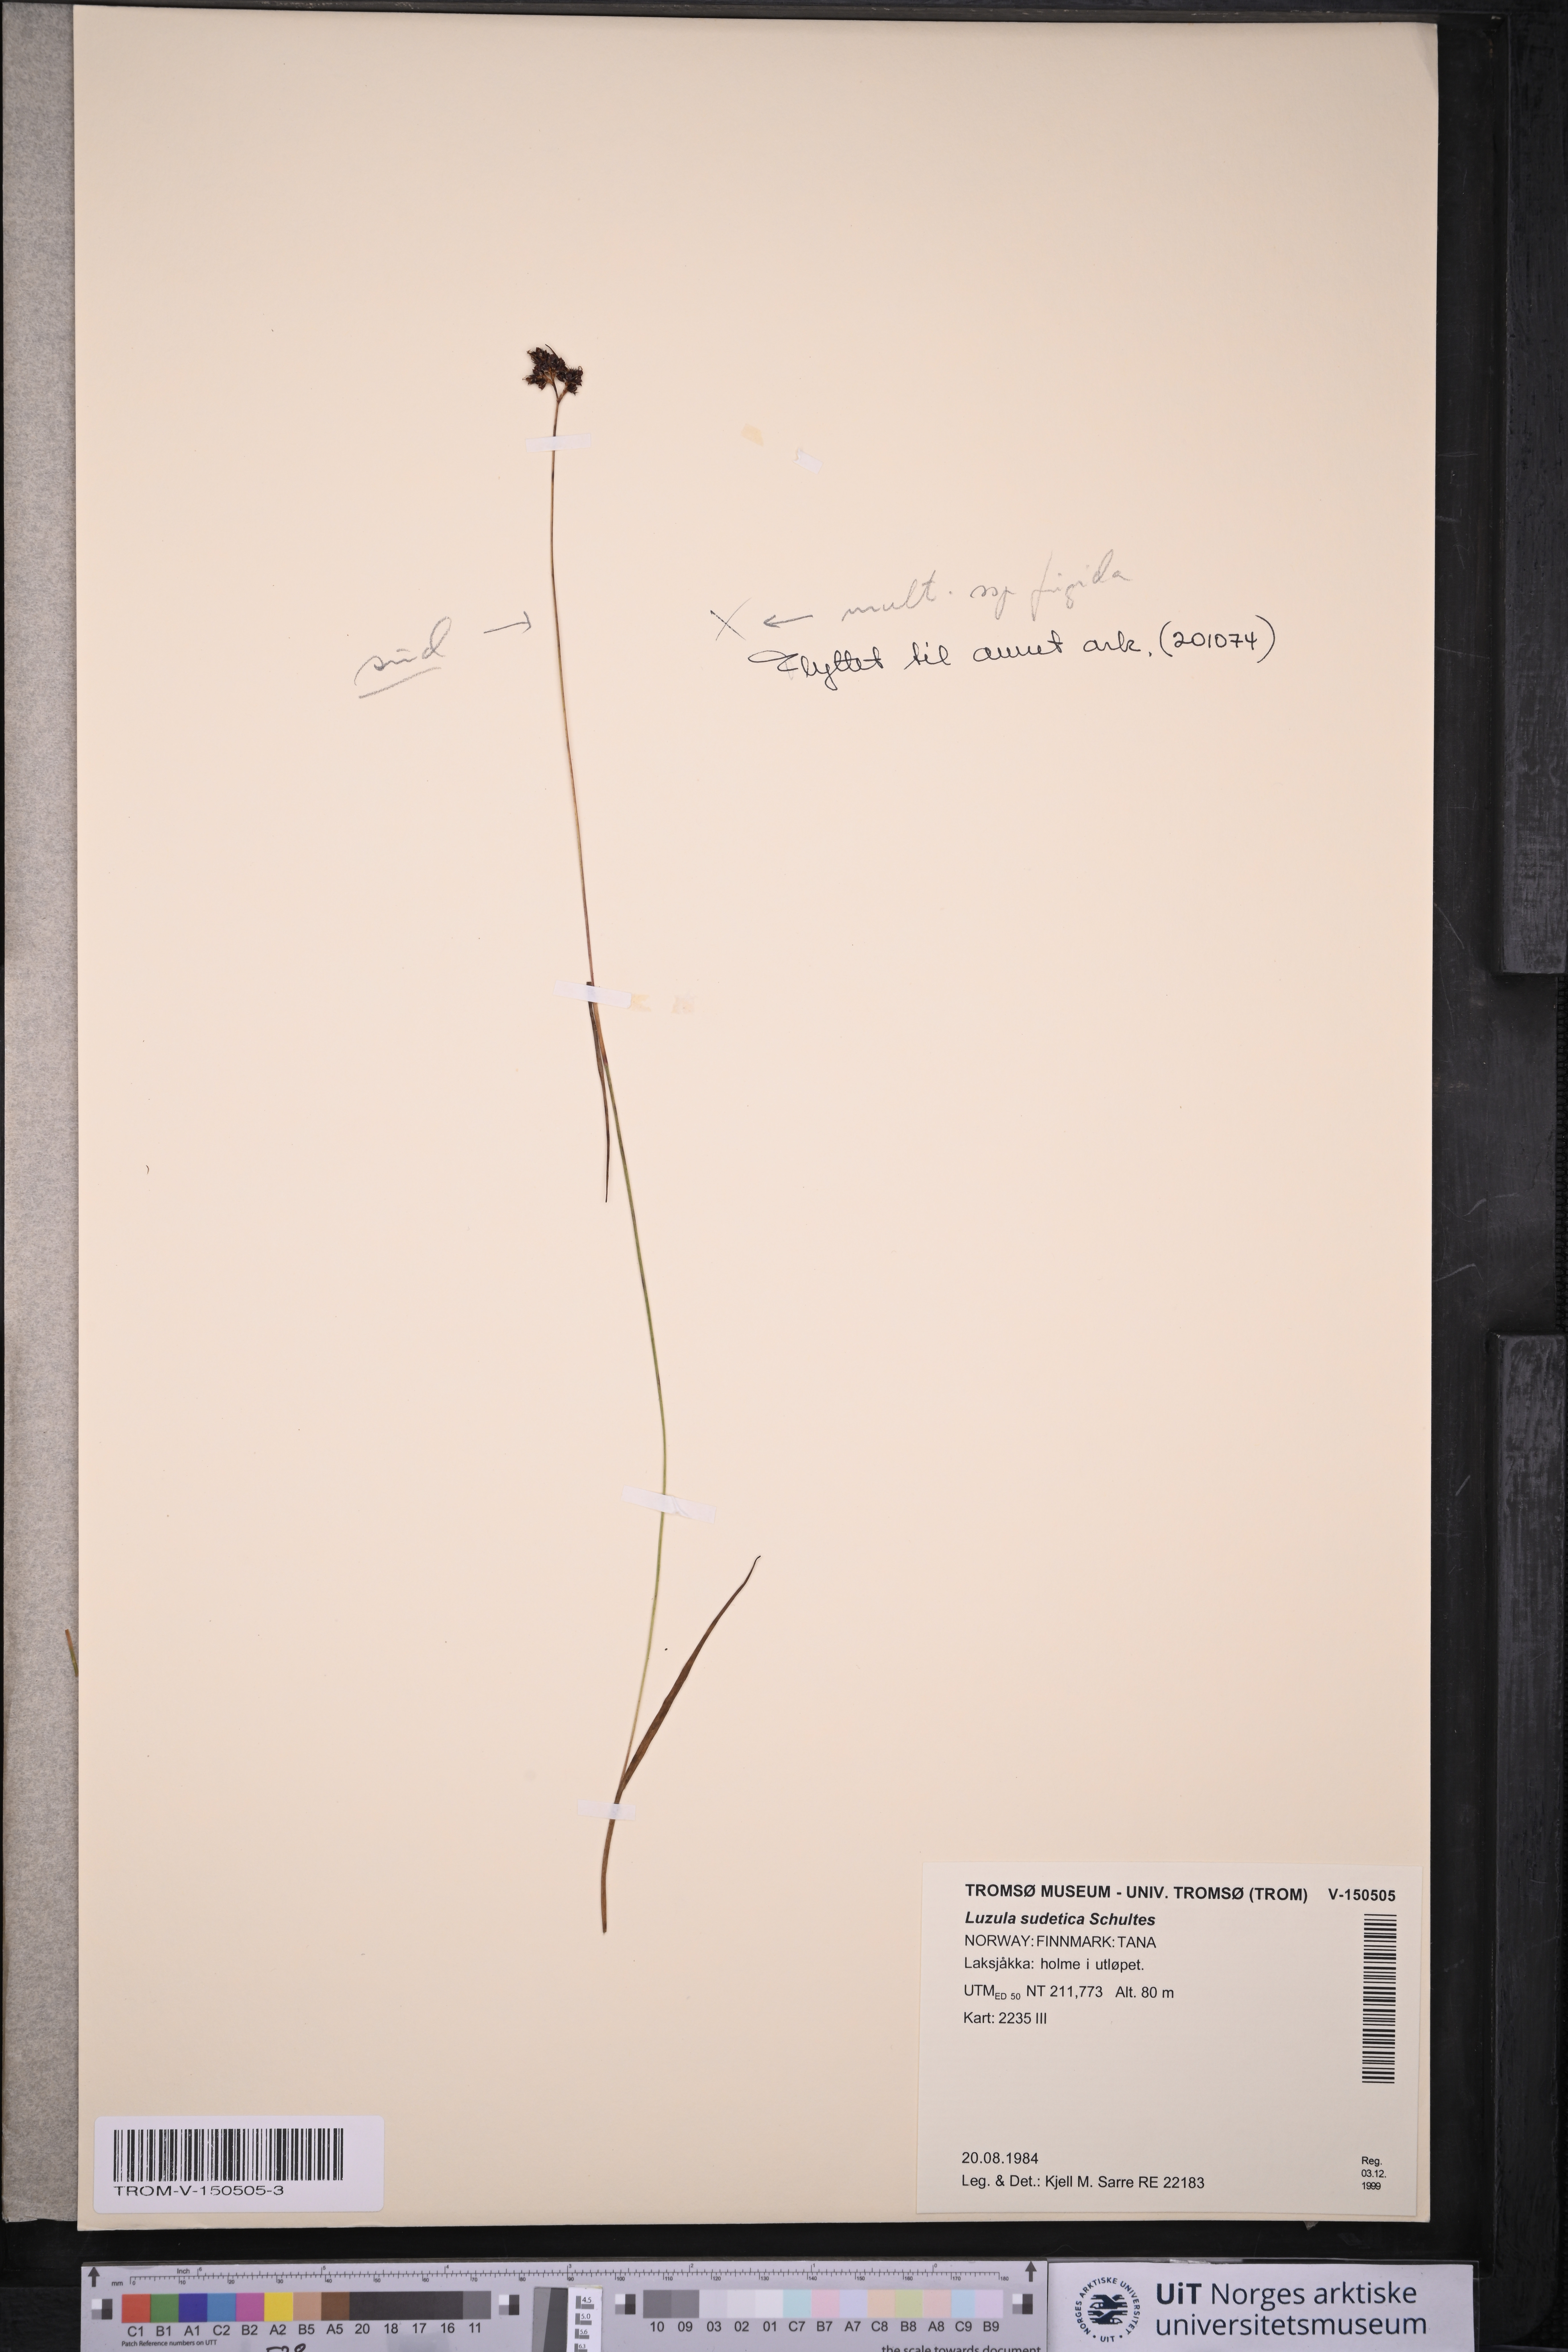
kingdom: Plantae
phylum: Tracheophyta
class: Liliopsida
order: Poales
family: Juncaceae
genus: Luzula
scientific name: Luzula sudetica
